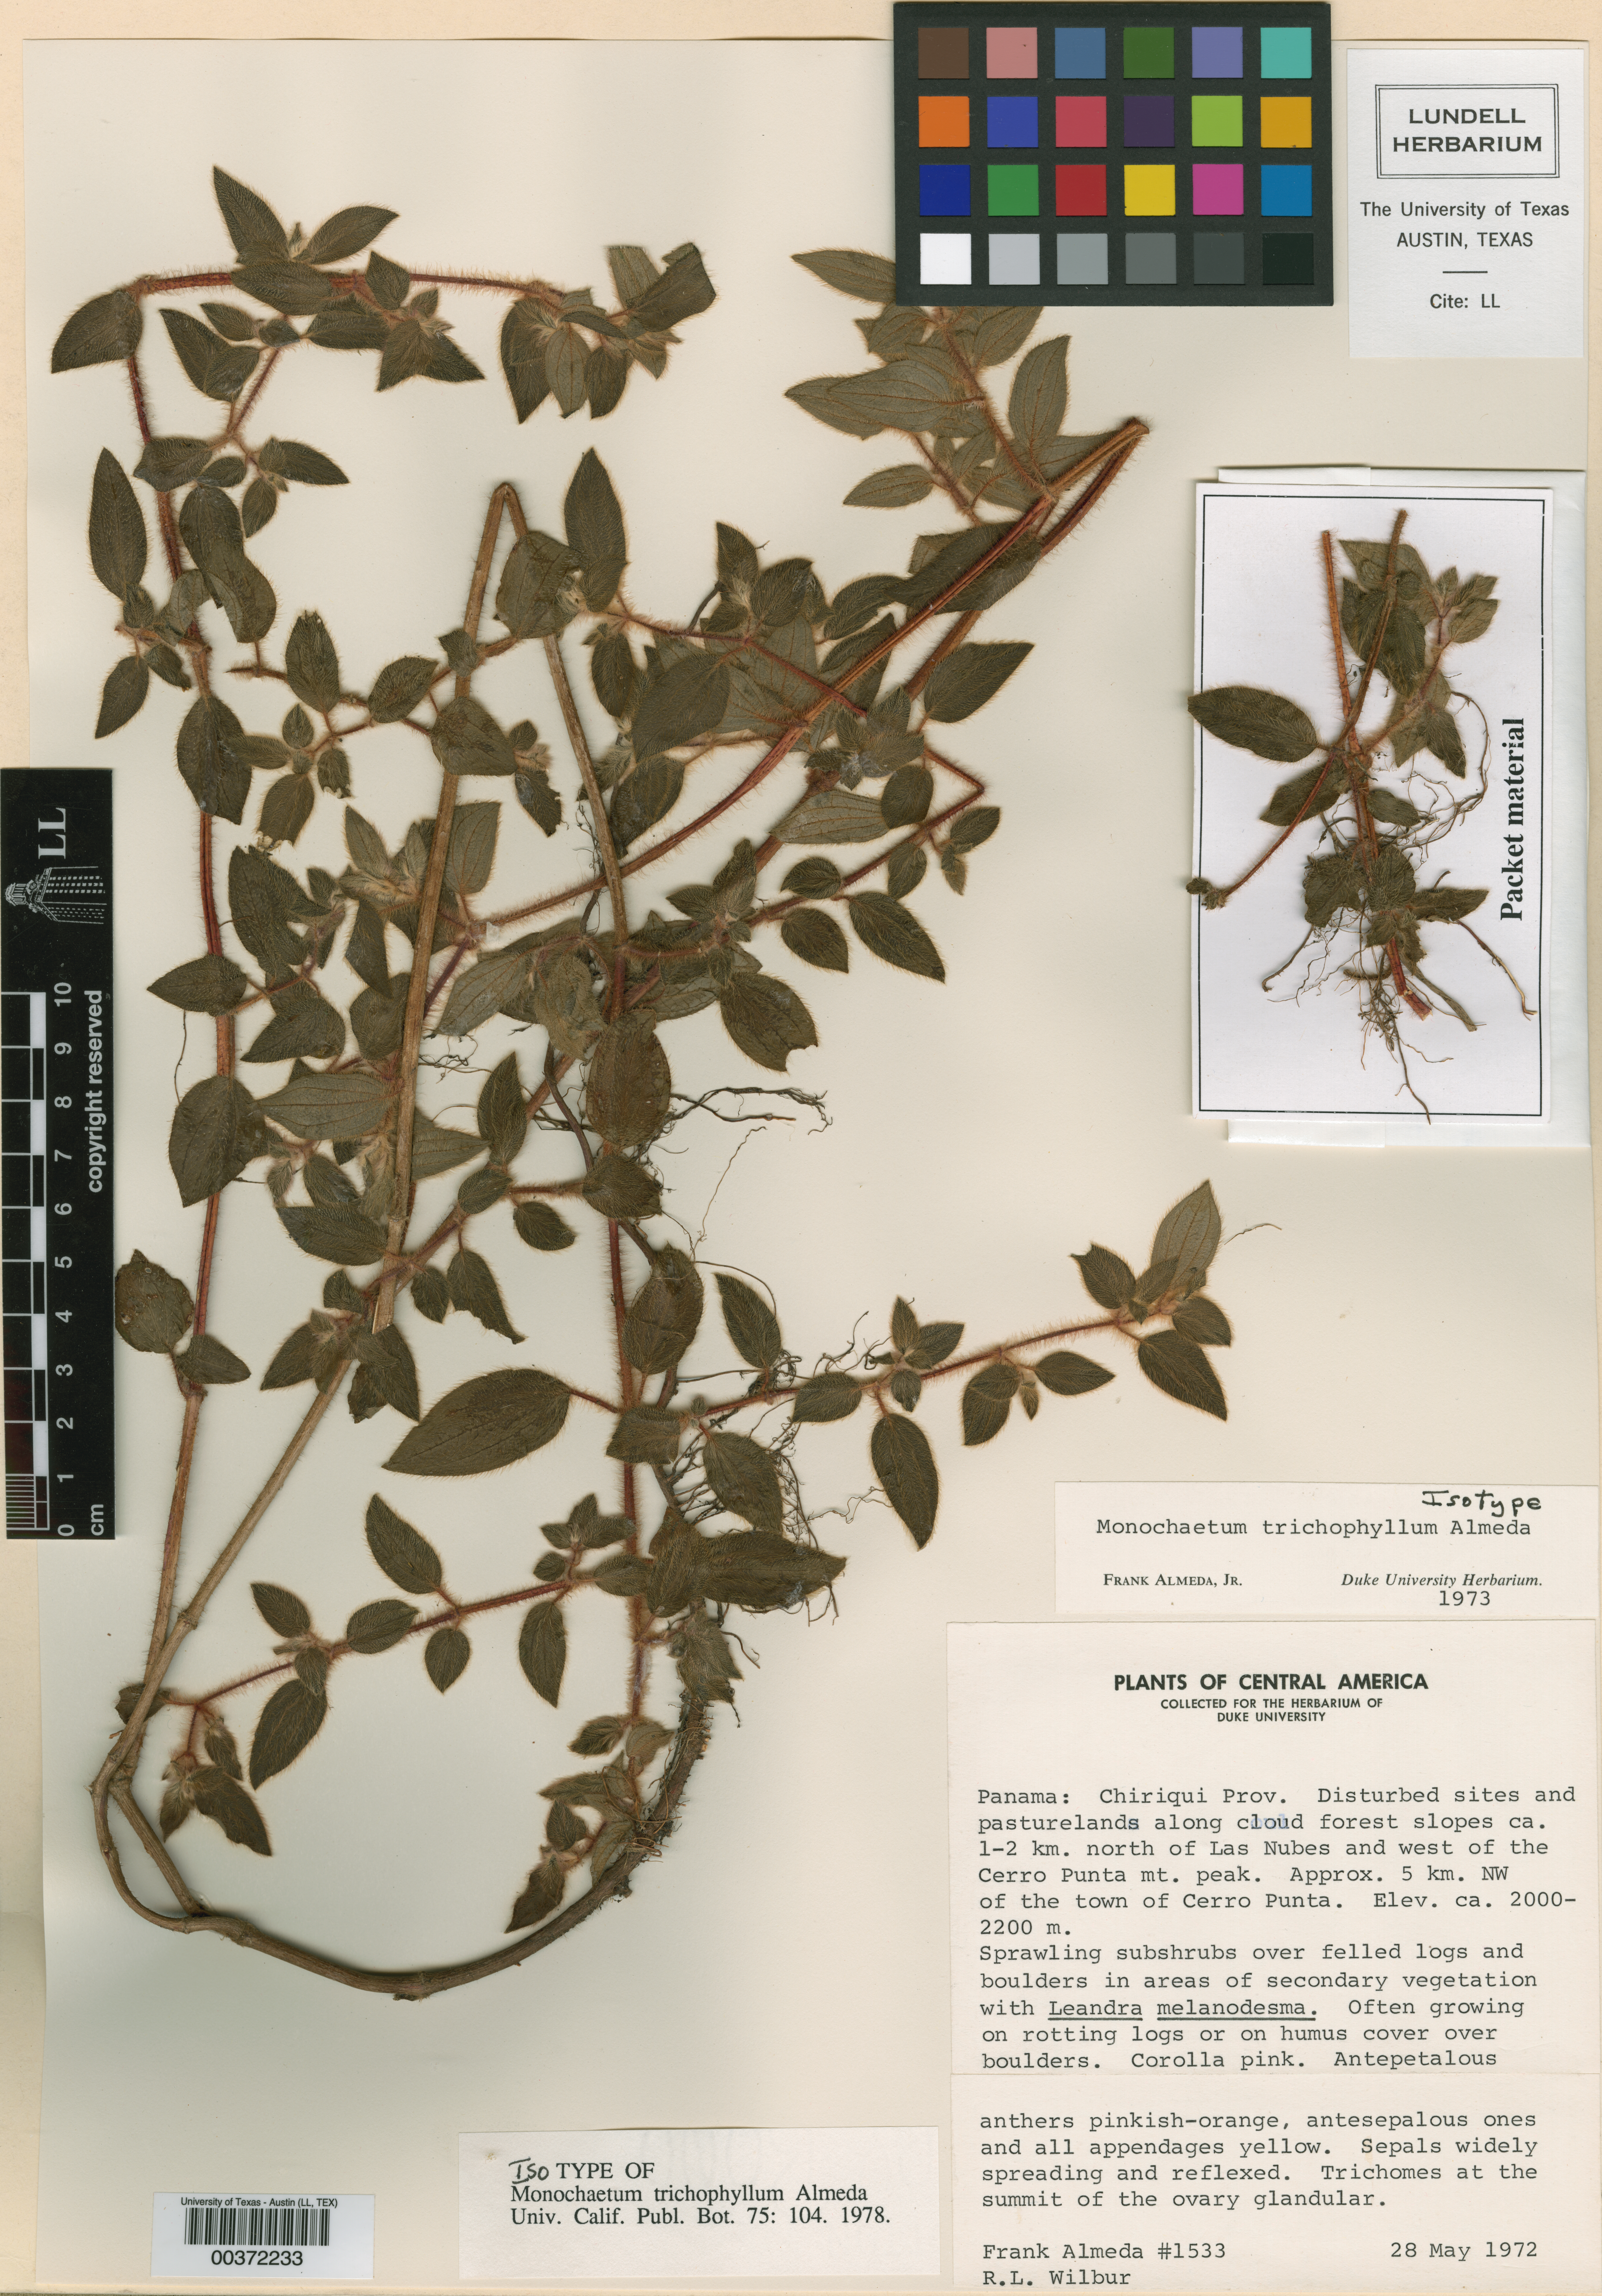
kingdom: Plantae
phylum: Tracheophyta
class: Magnoliopsida
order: Myrtales
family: Melastomataceae
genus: Monochaetum
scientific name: Monochaetum trichophyllum
